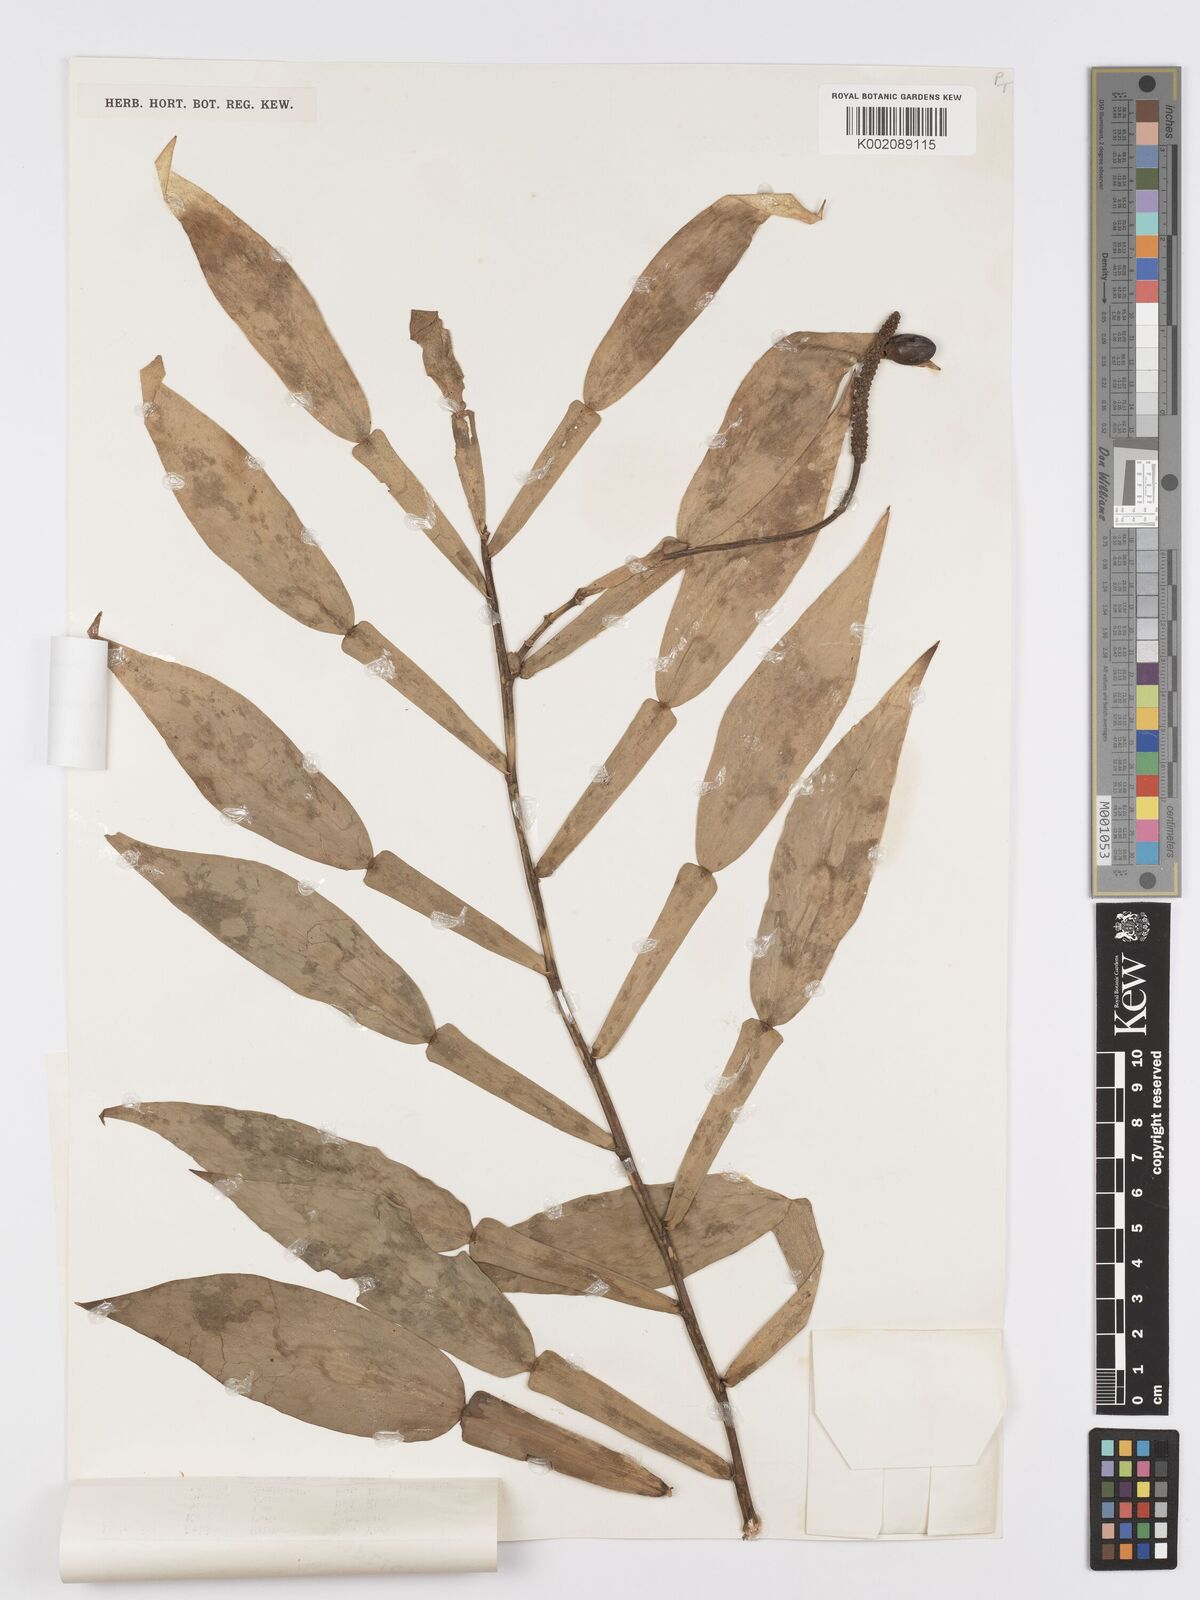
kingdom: Plantae
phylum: Tracheophyta
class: Liliopsida
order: Alismatales
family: Araceae
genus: Pothos
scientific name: Pothos papuanus
